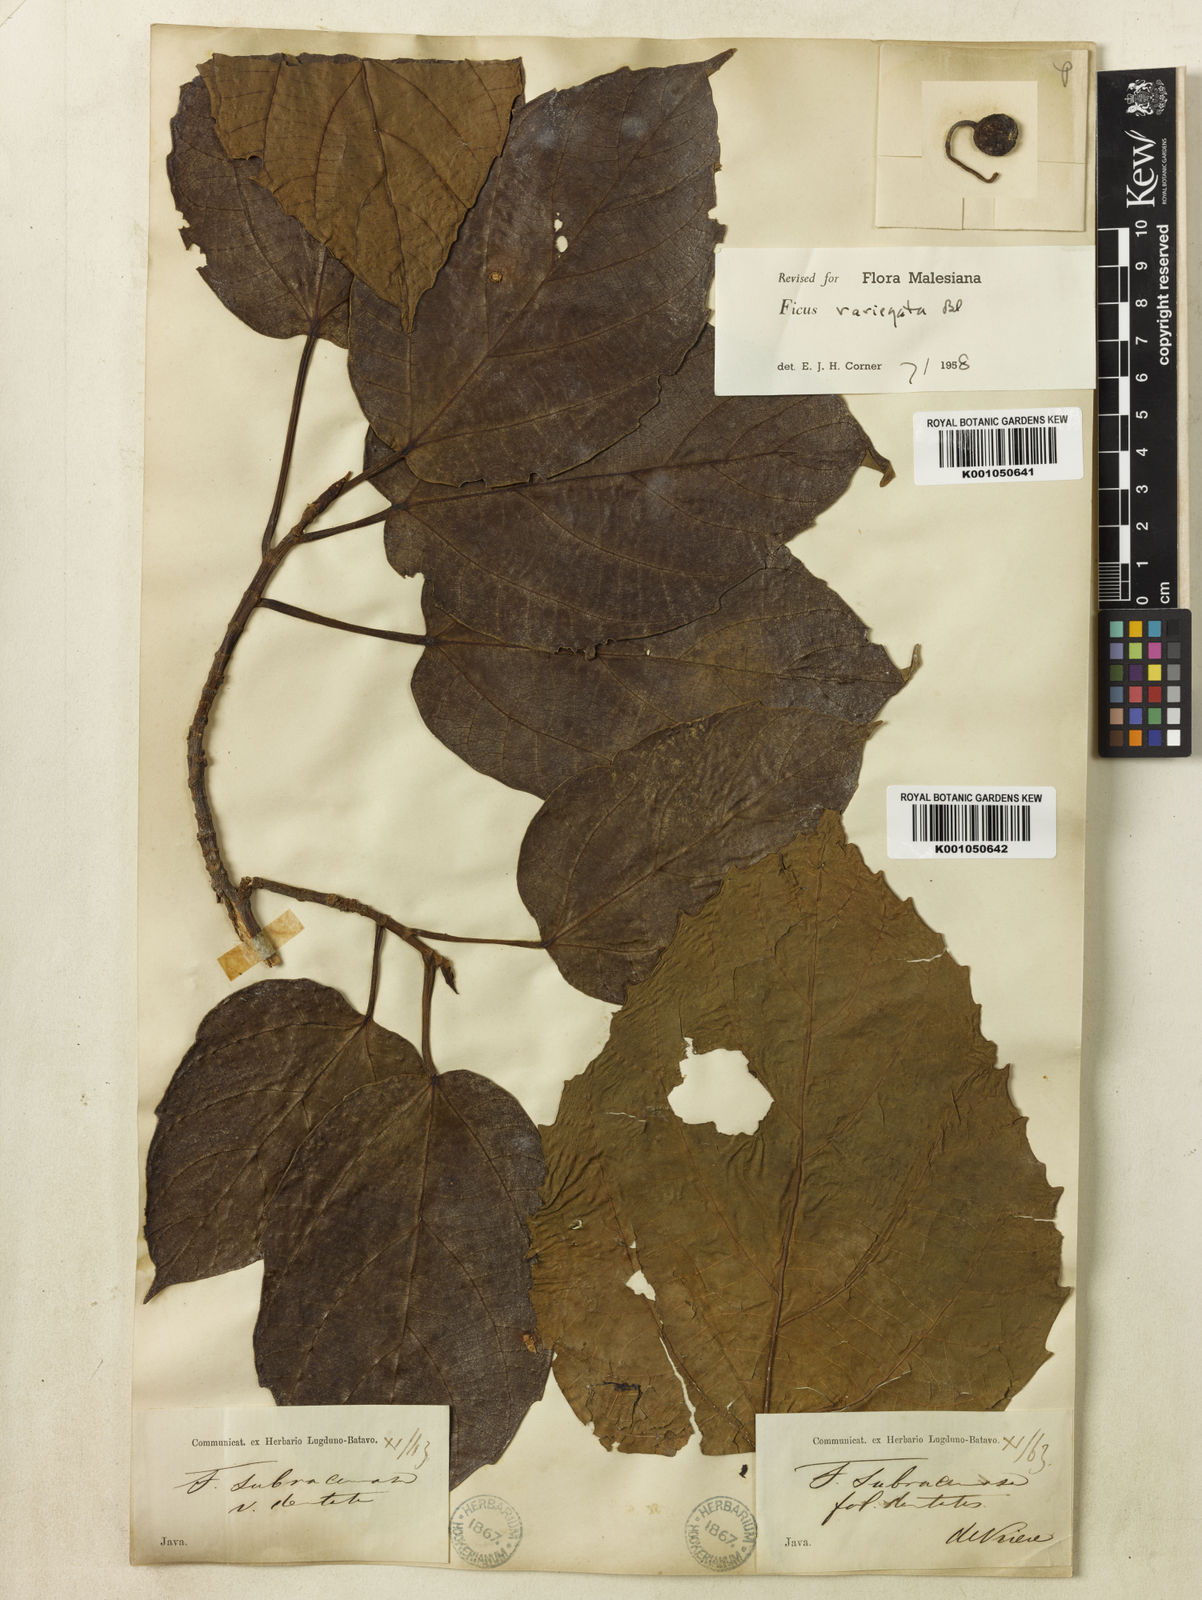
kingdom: Plantae
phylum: Tracheophyta
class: Magnoliopsida
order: Rosales
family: Moraceae
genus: Ficus
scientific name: Ficus variegata
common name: Variegated fig
